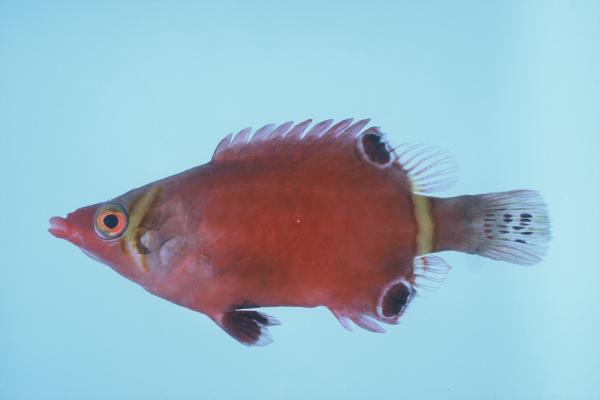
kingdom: Animalia
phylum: Chordata
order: Perciformes
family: Labridae
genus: Wetmorella
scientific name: Wetmorella nigropinnata
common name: Sharpnose wrasse
